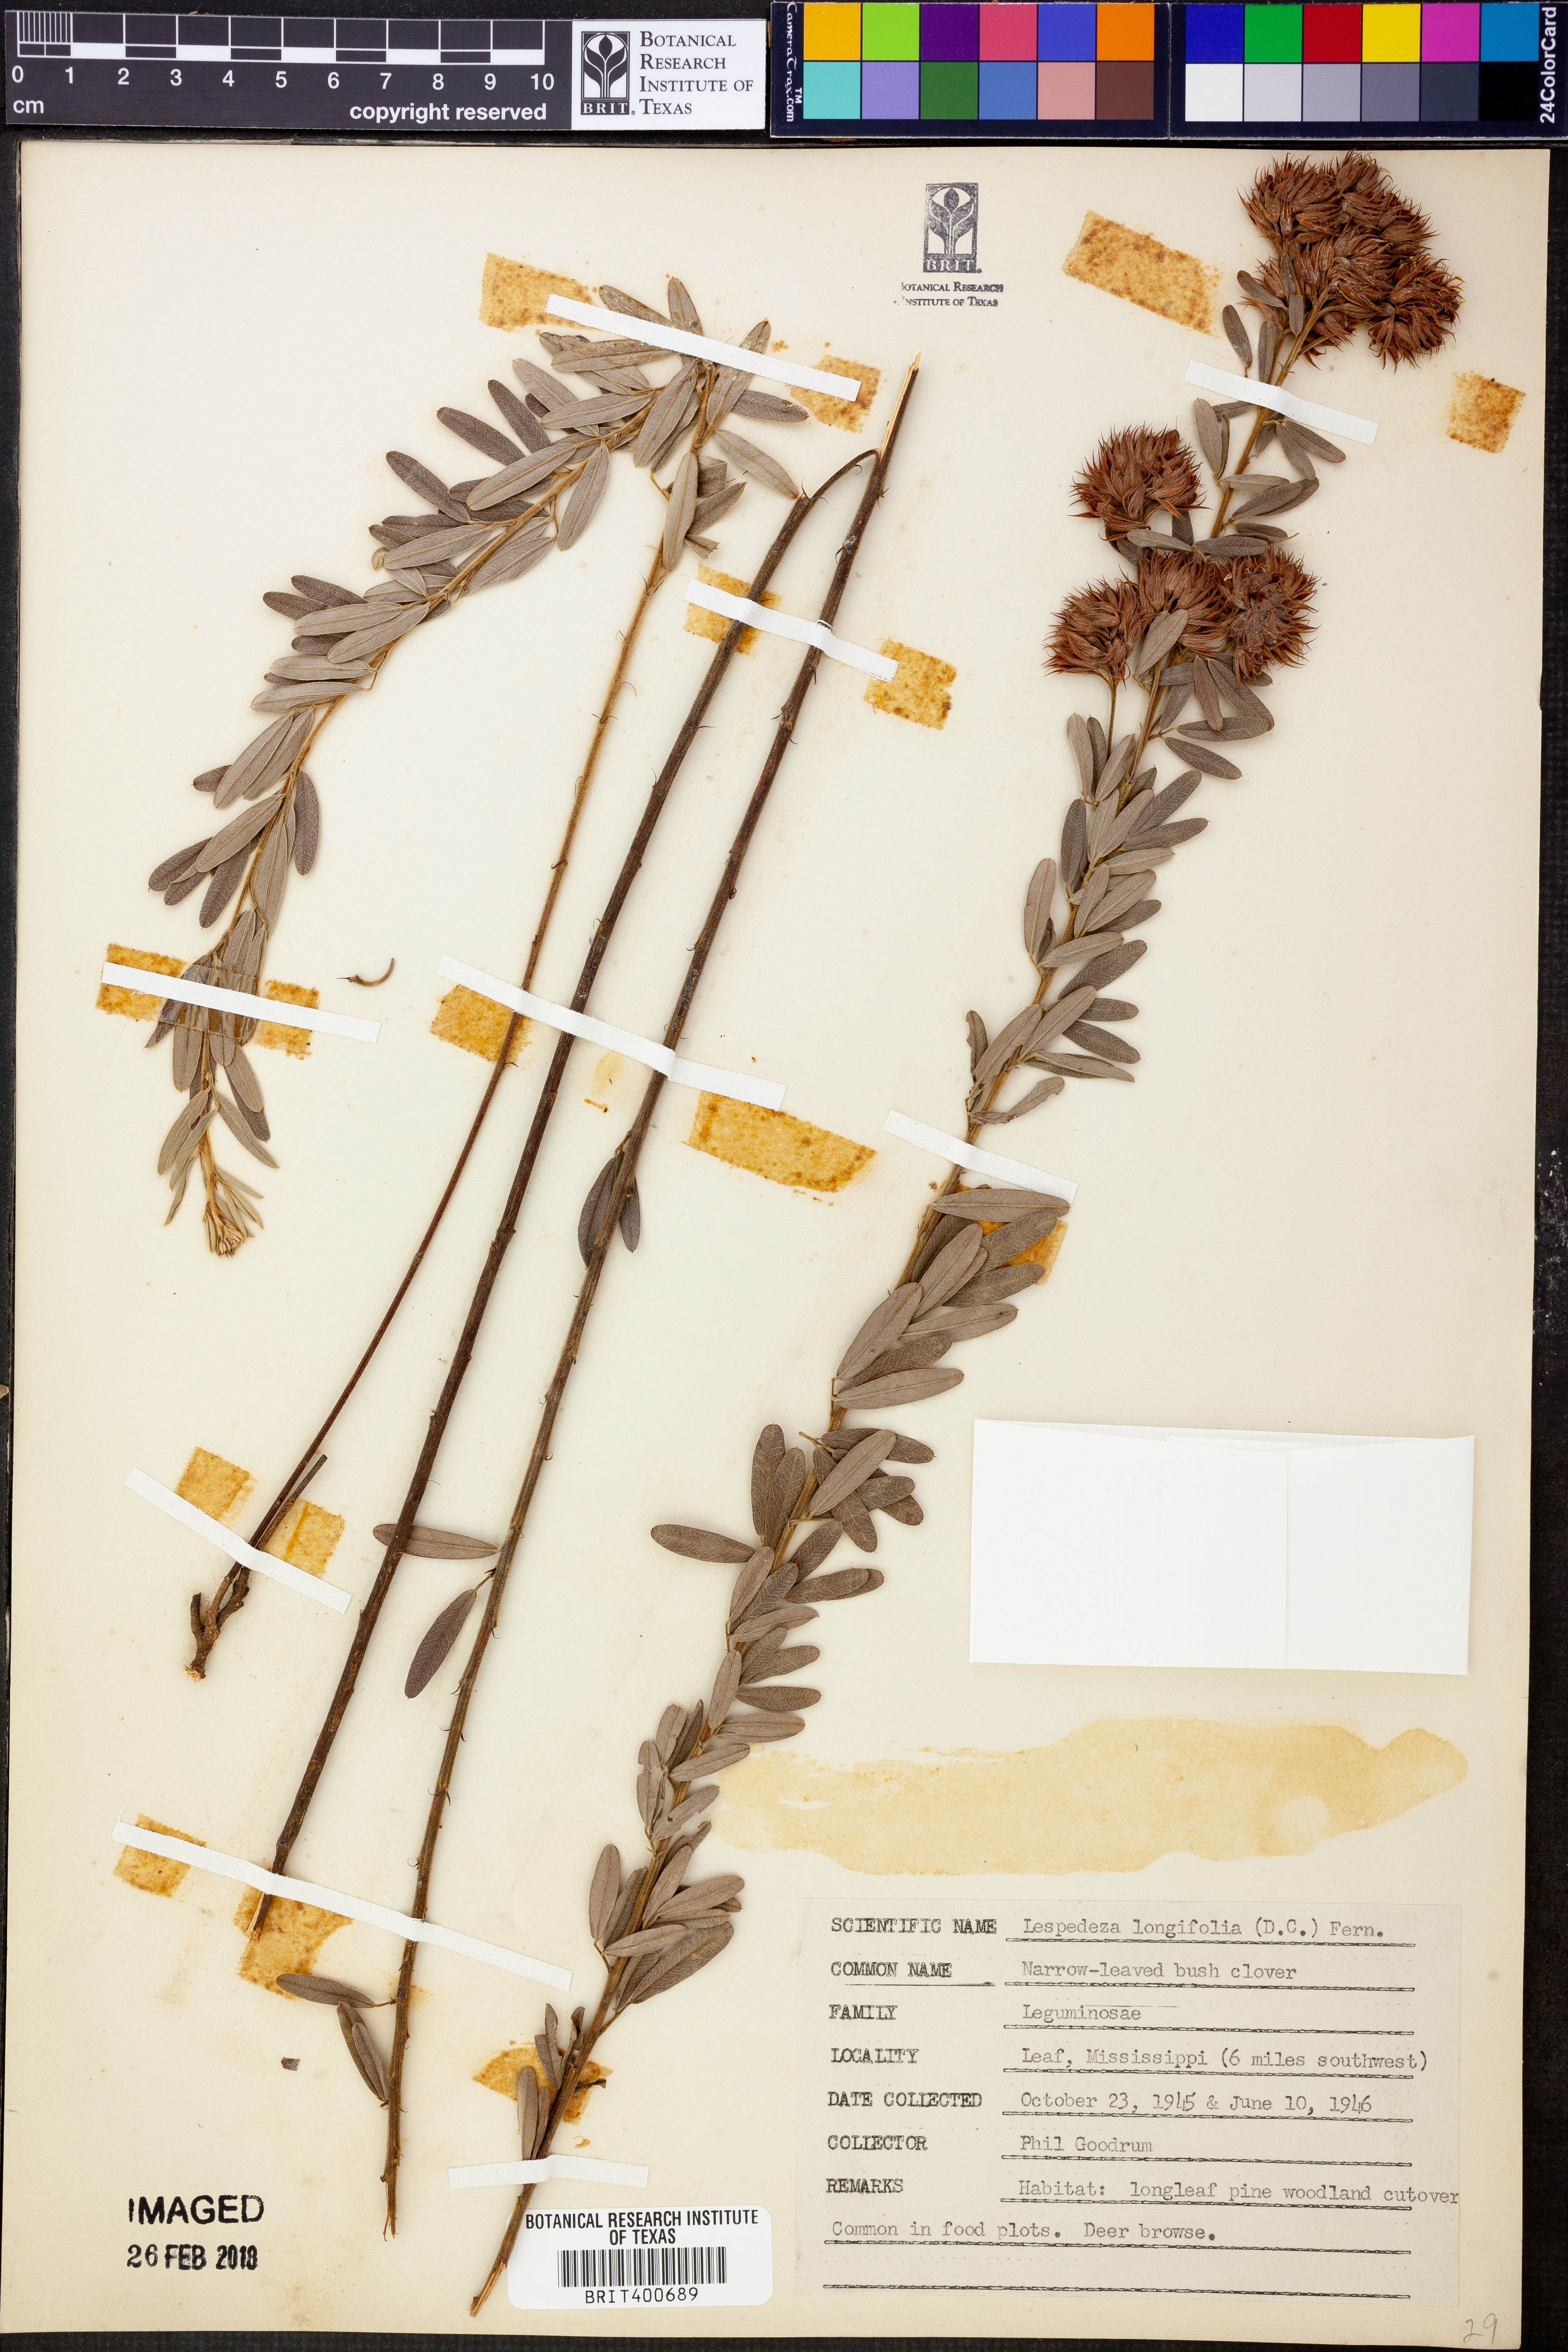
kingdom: Plantae
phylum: Tracheophyta
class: Magnoliopsida
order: Fabales
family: Fabaceae
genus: Lespedeza
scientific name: Lespedeza longifolia
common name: Long-leaved bush-clover
